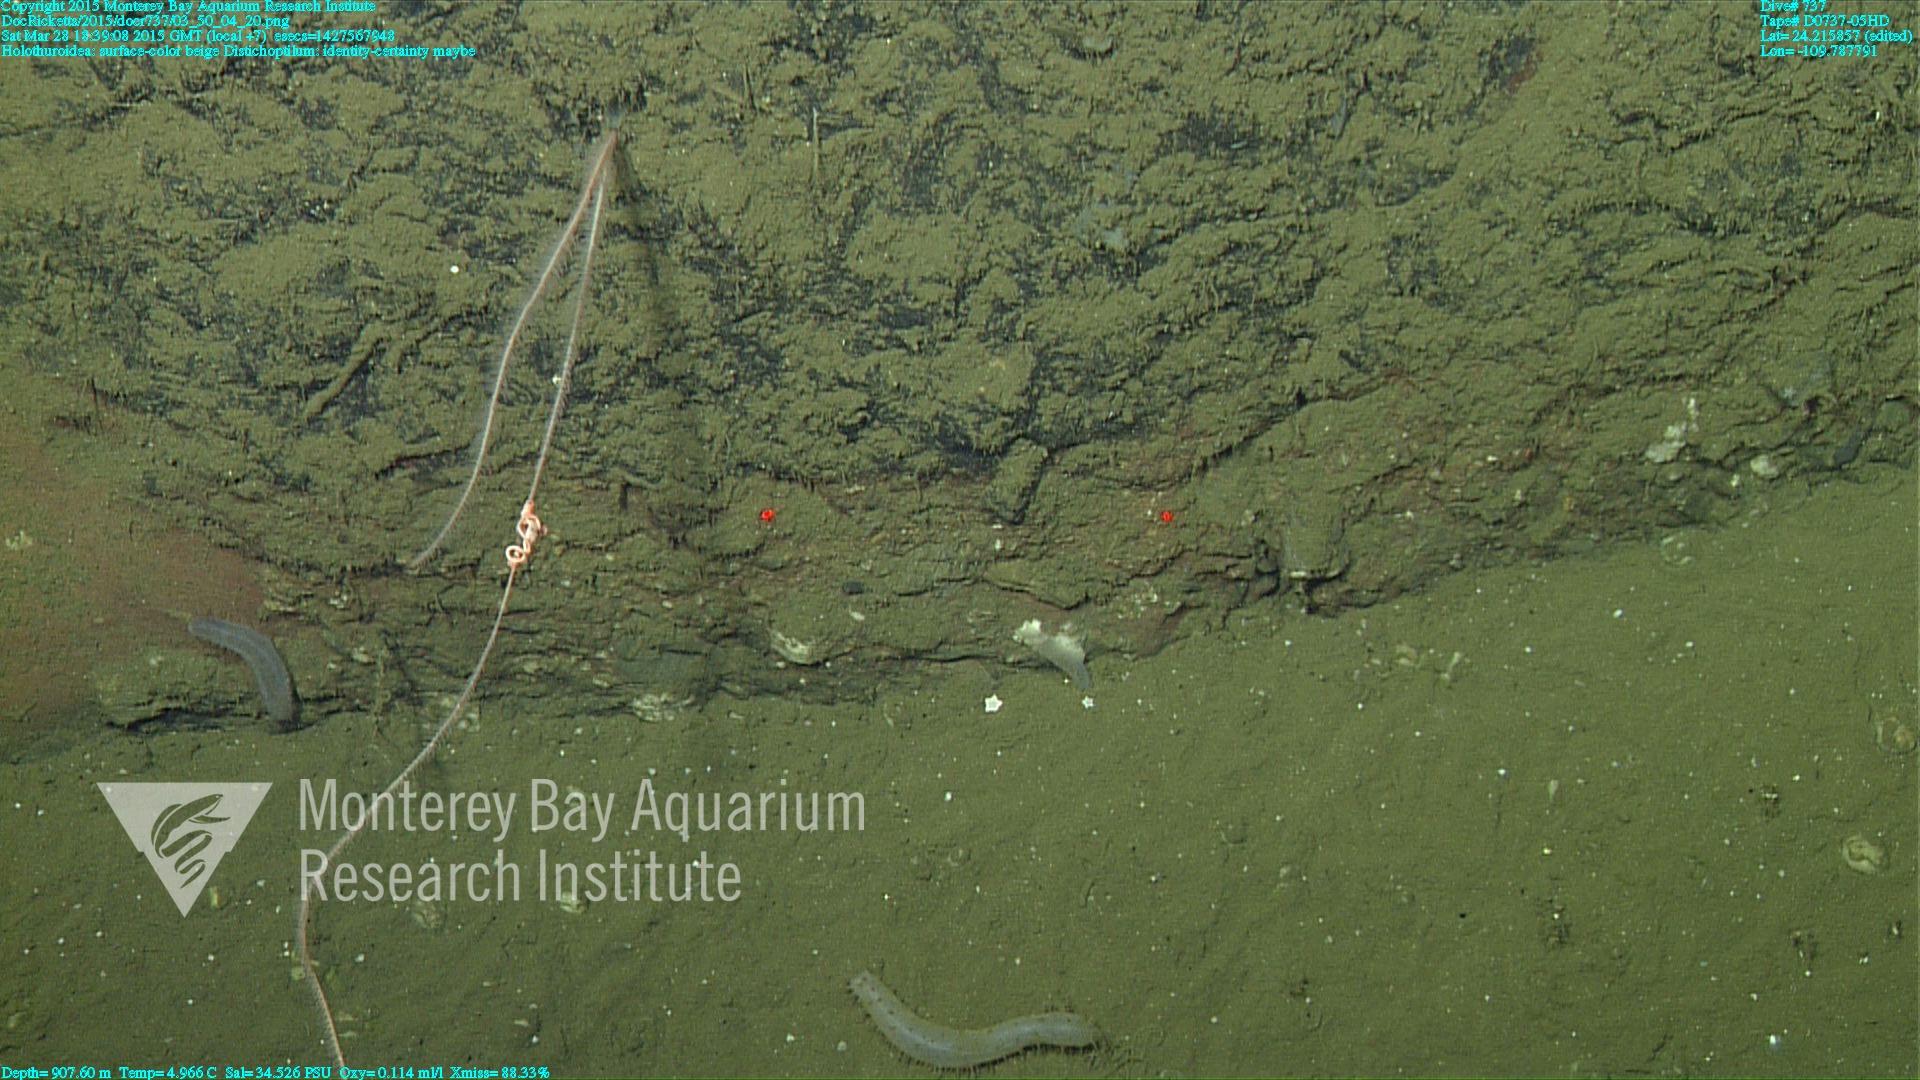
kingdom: Animalia
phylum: Cnidaria
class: Anthozoa
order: Scleralcyonacea
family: Protoptilidae
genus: Distichoptilum
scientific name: Distichoptilum
